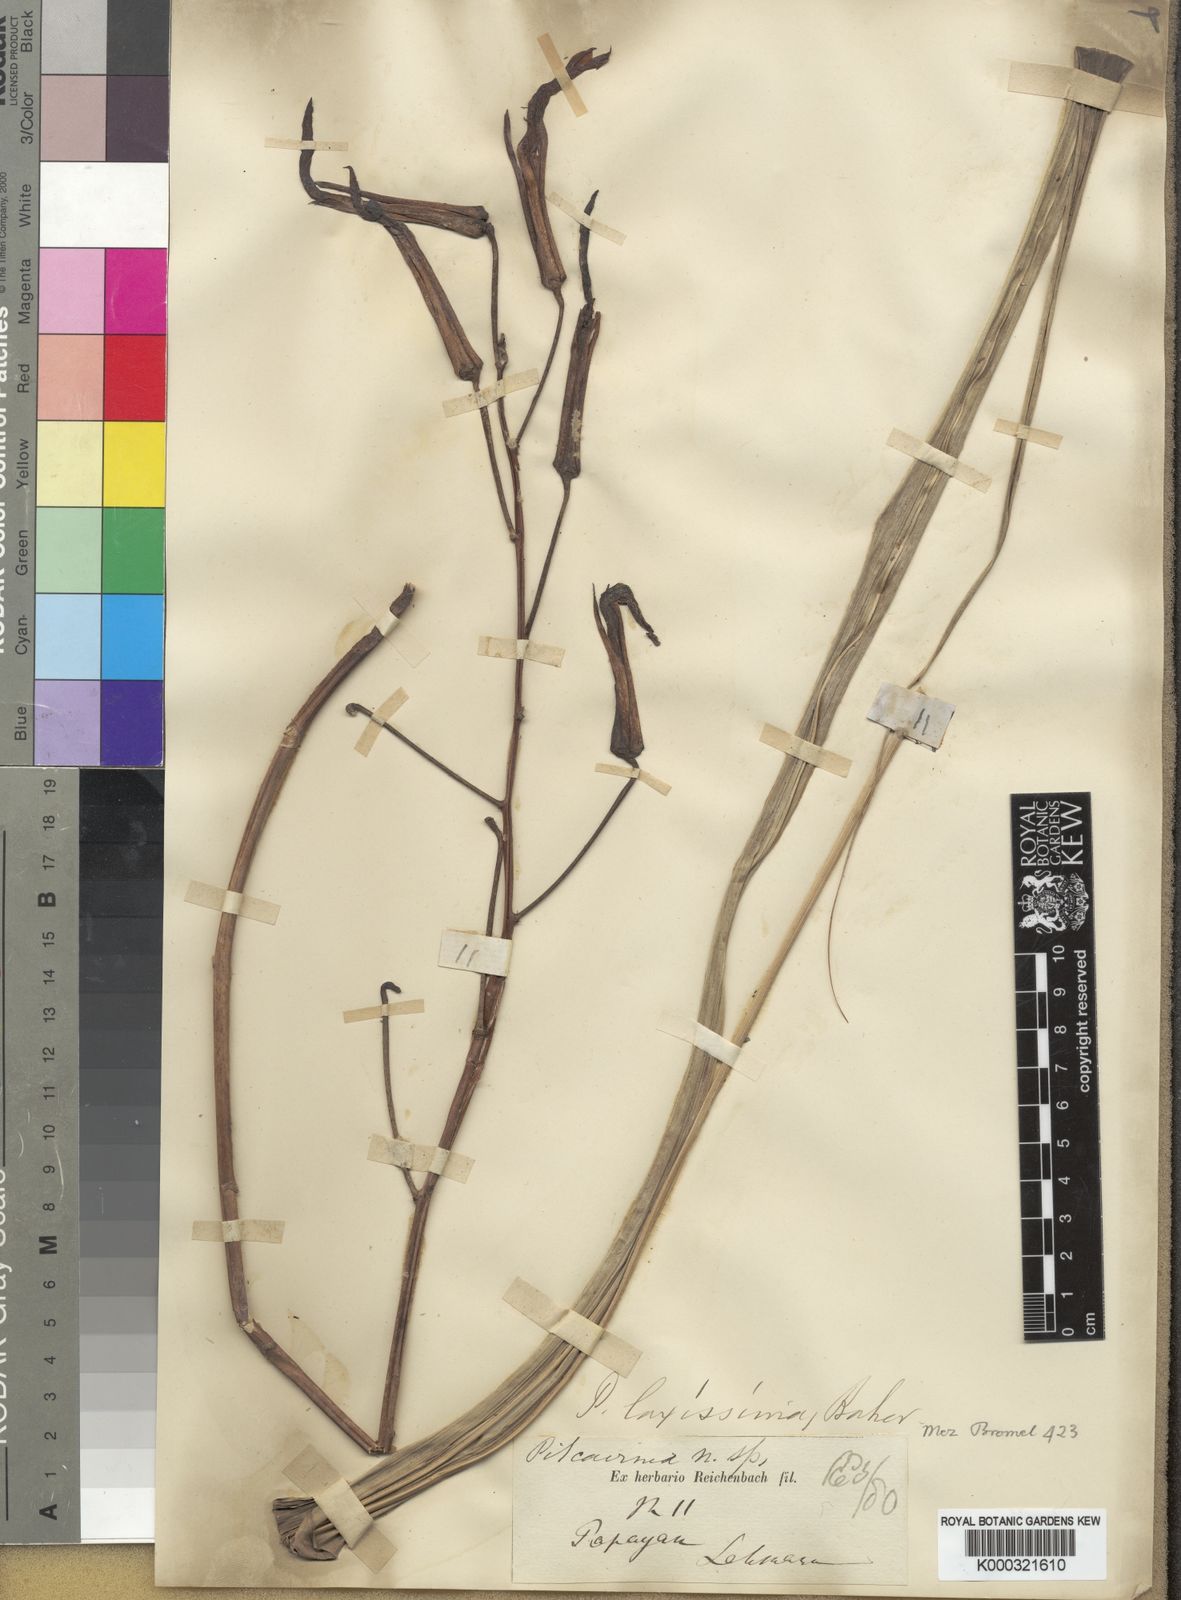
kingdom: Plantae
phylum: Tracheophyta
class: Liliopsida
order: Poales
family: Bromeliaceae
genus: Pitcairnia
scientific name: Pitcairnia laxissima
